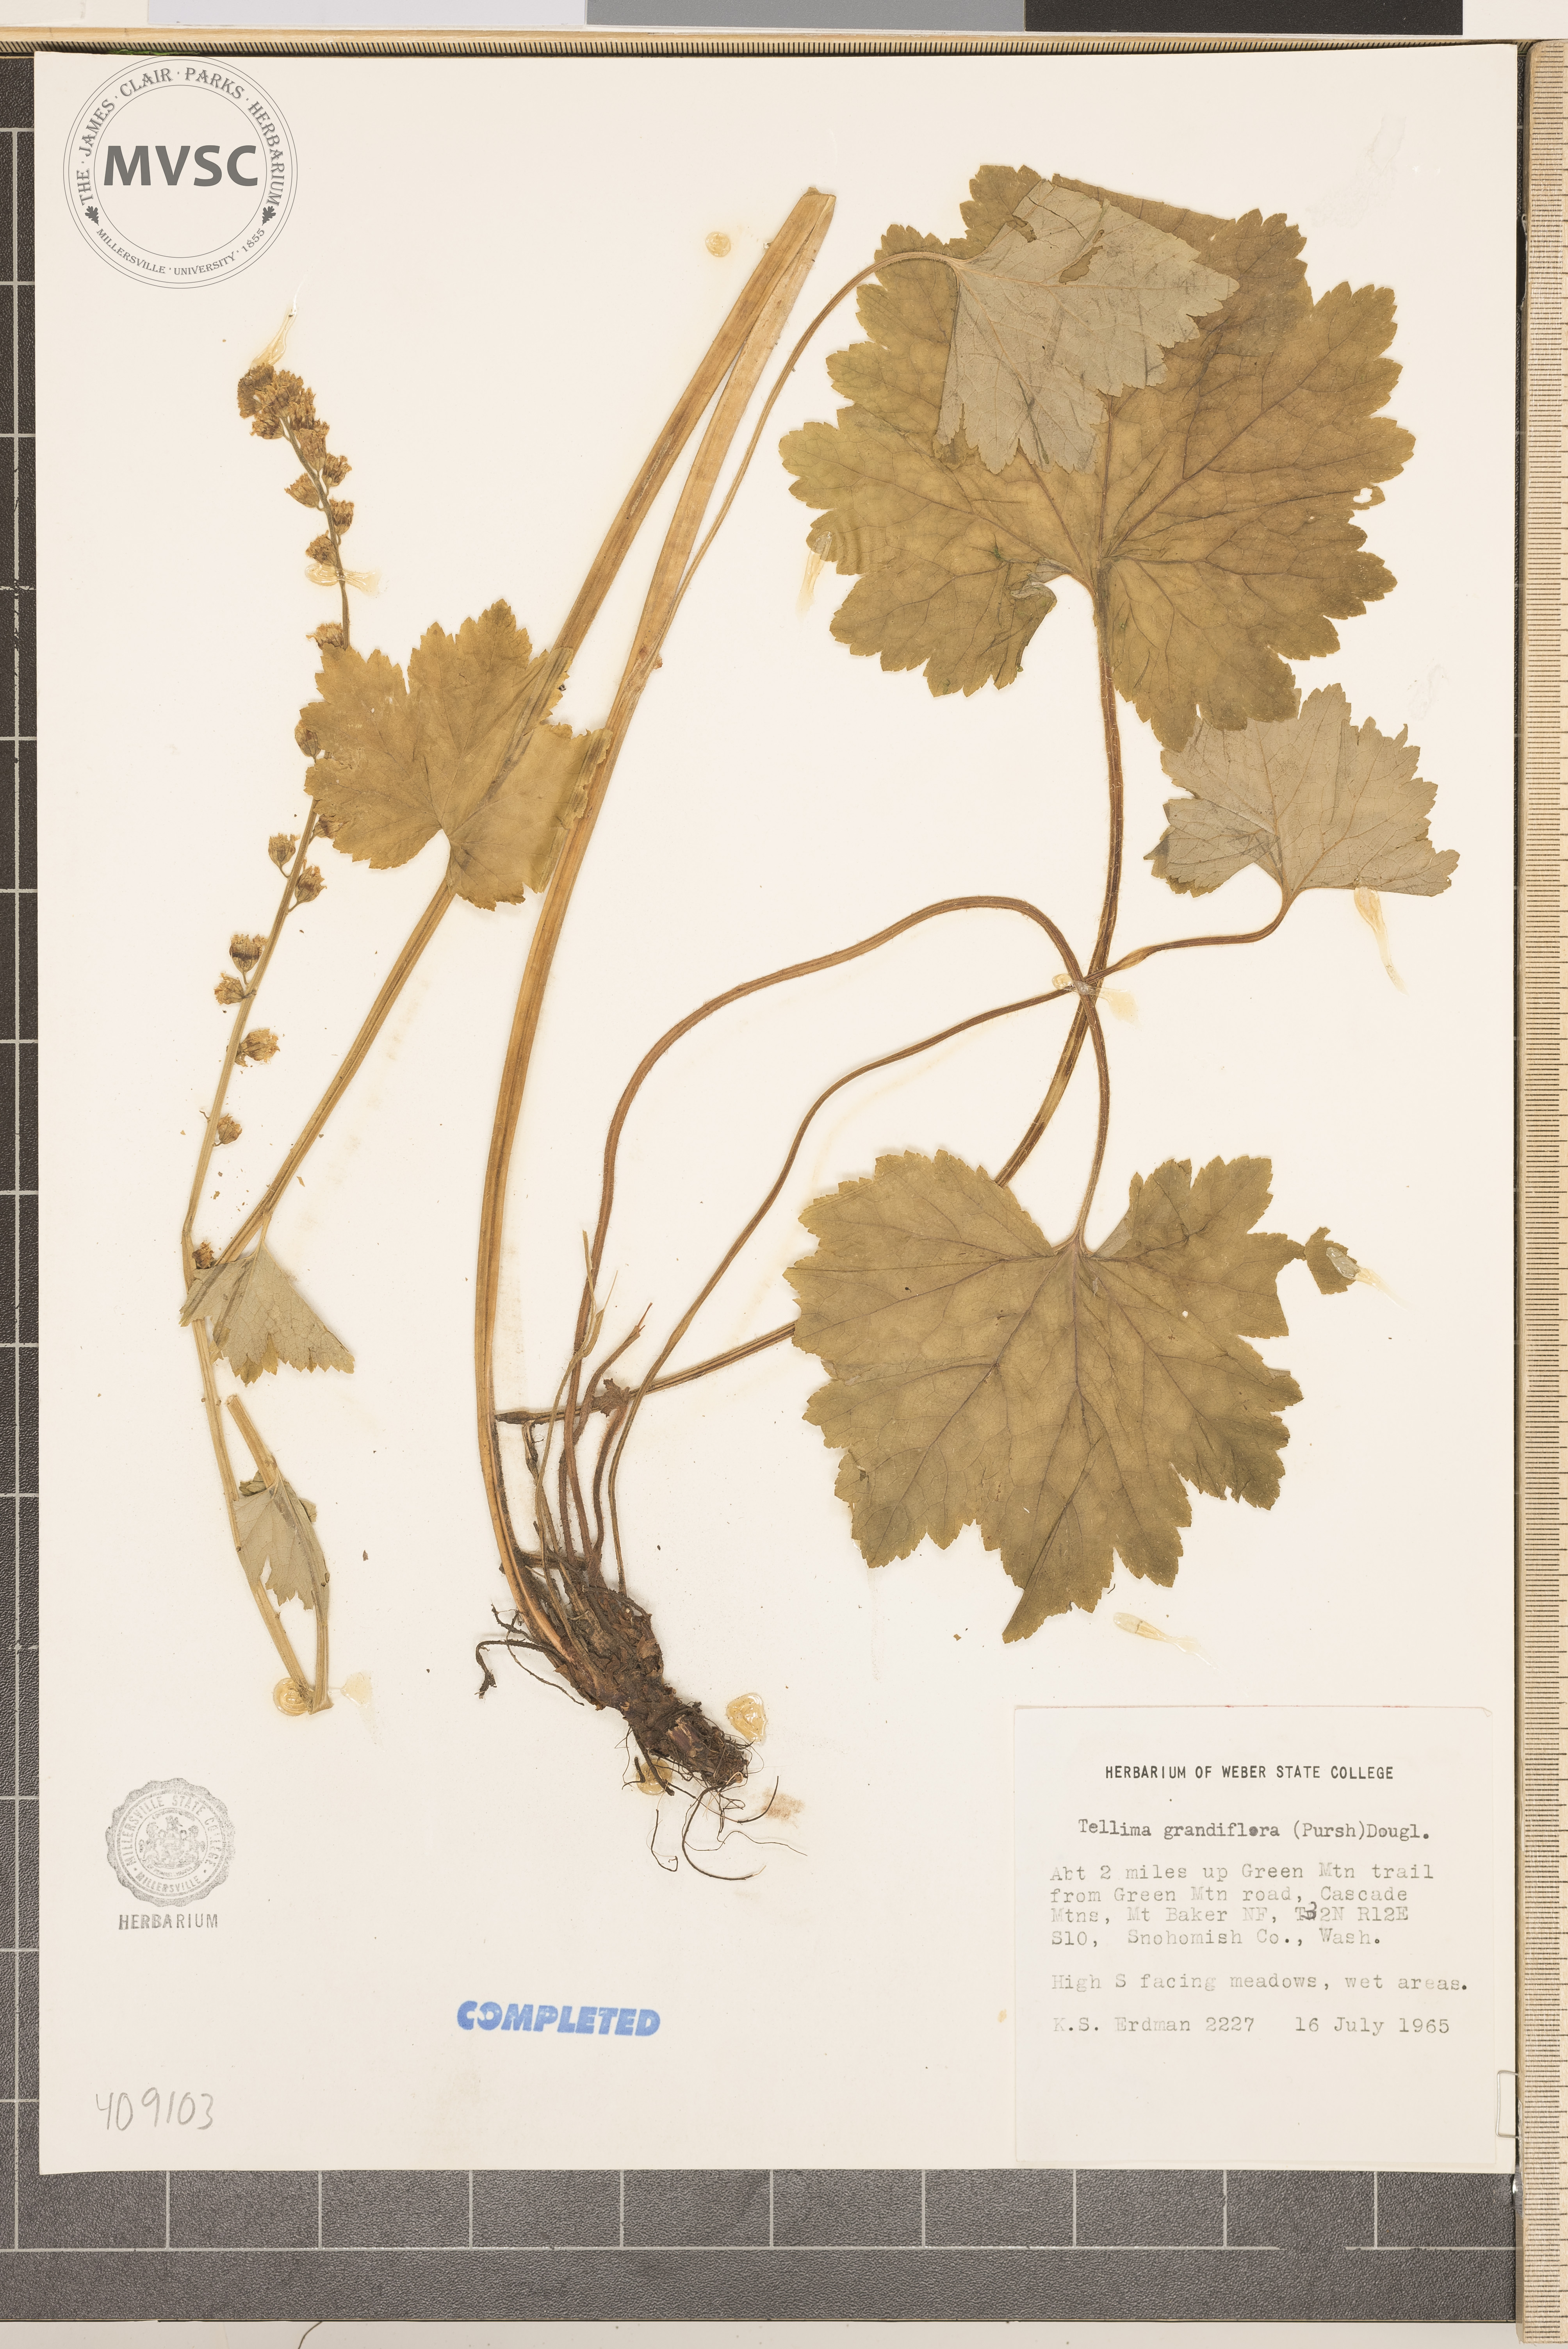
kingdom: Plantae
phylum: Tracheophyta
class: Magnoliopsida
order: Saxifragales
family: Saxifragaceae
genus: Tellima
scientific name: Tellima grandiflora
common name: Fringecups
